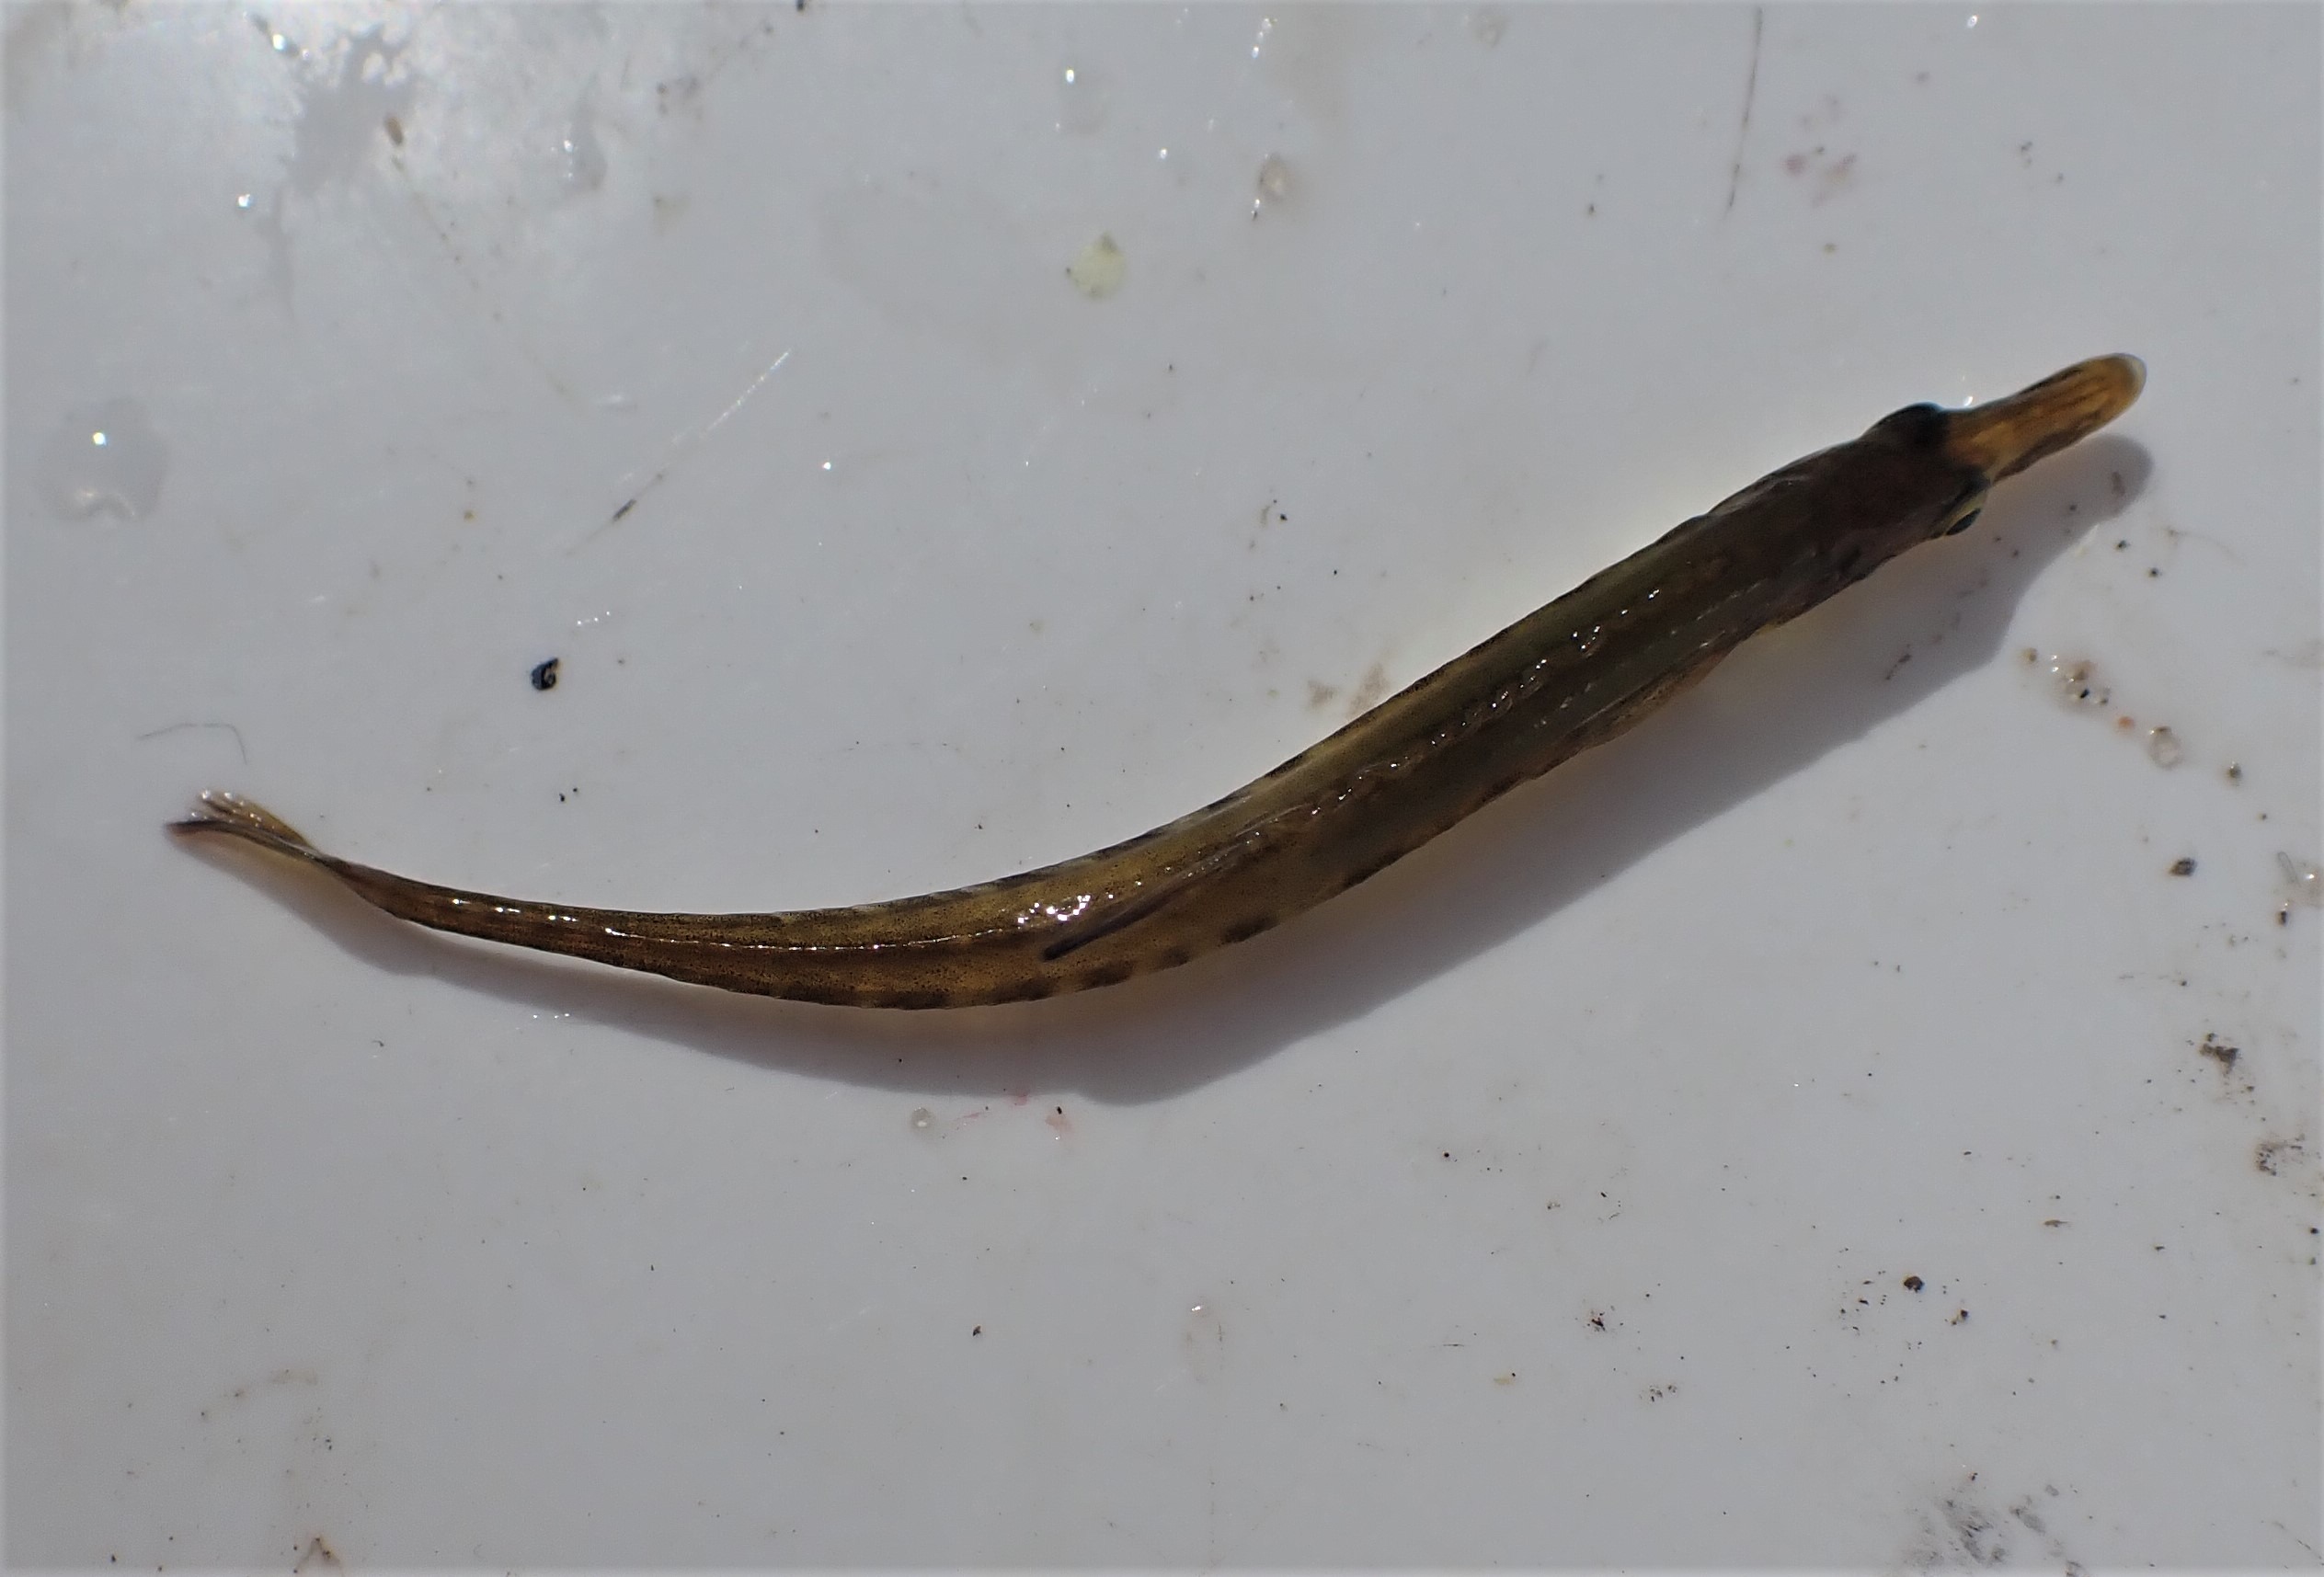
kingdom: Animalia
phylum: Chordata
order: Gasterosteiformes
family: Gasterosteidae
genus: Spinachia
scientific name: Spinachia spinachia
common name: Tangsnarre
